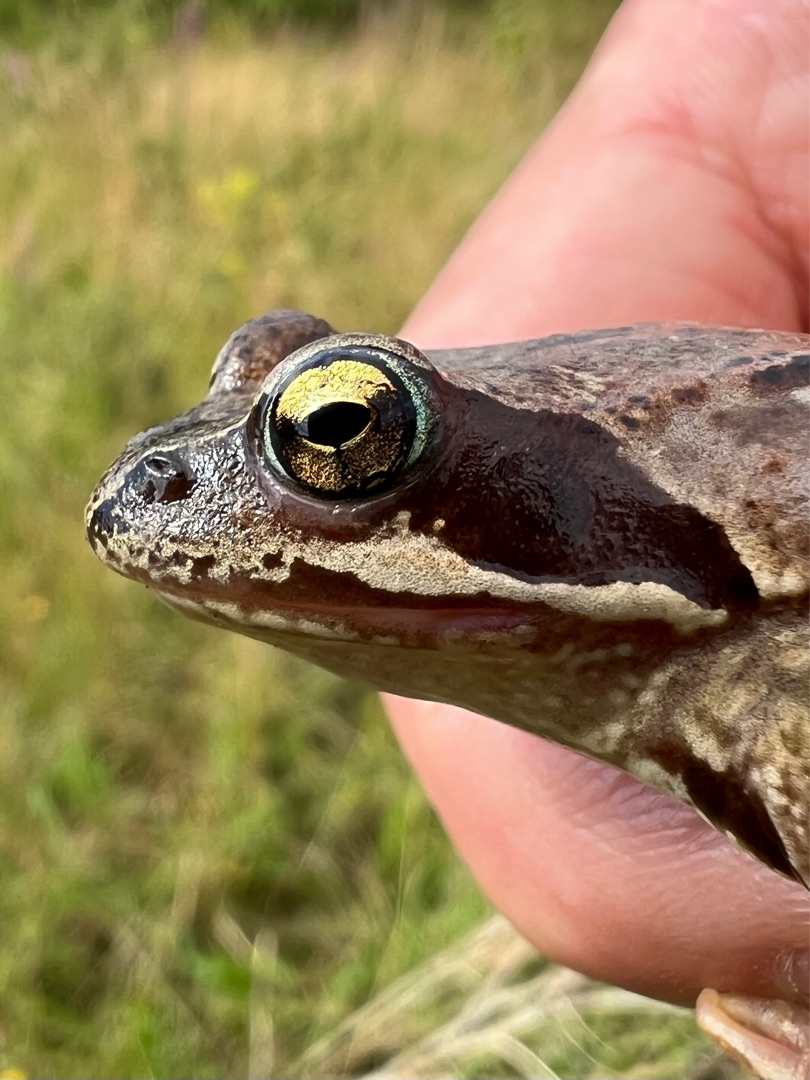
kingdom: Animalia
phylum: Chordata
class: Amphibia
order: Anura
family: Ranidae
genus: Rana
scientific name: Rana temporaria
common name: Butsnudet frø
